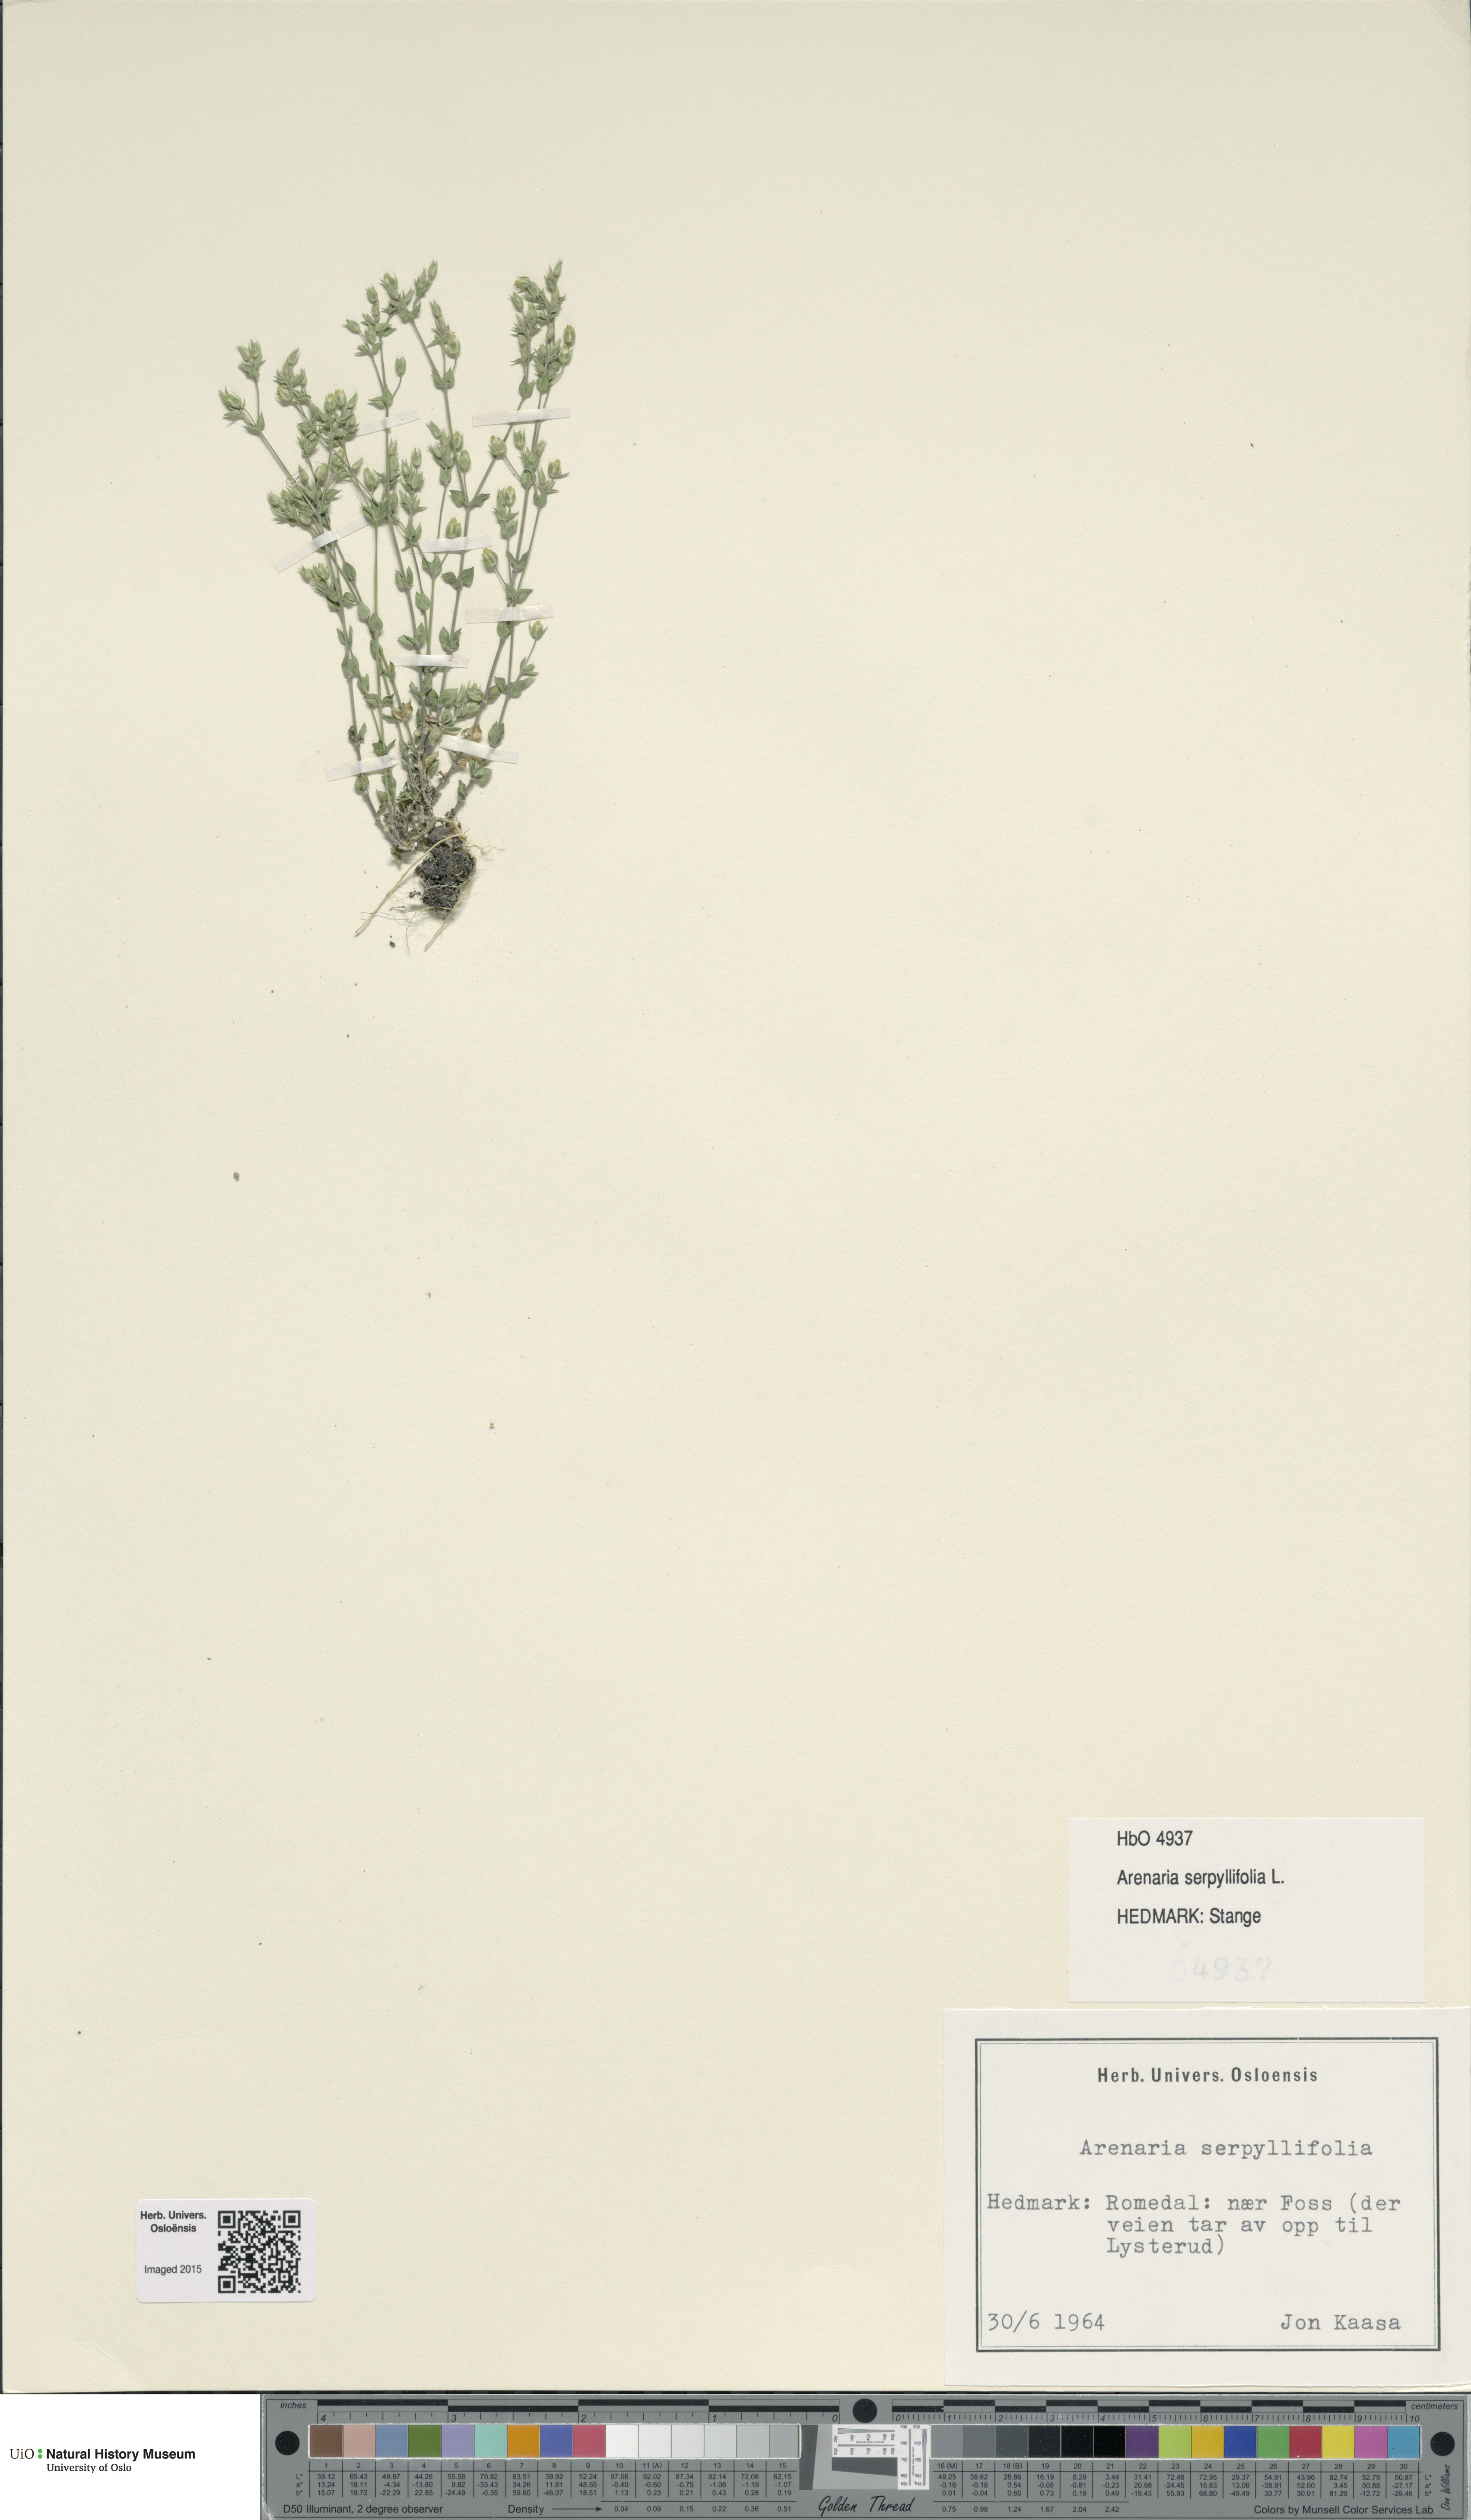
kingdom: Plantae
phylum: Tracheophyta
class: Magnoliopsida
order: Caryophyllales
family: Caryophyllaceae
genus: Arenaria
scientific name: Arenaria serpyllifolia
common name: Thyme-leaved sandwort
